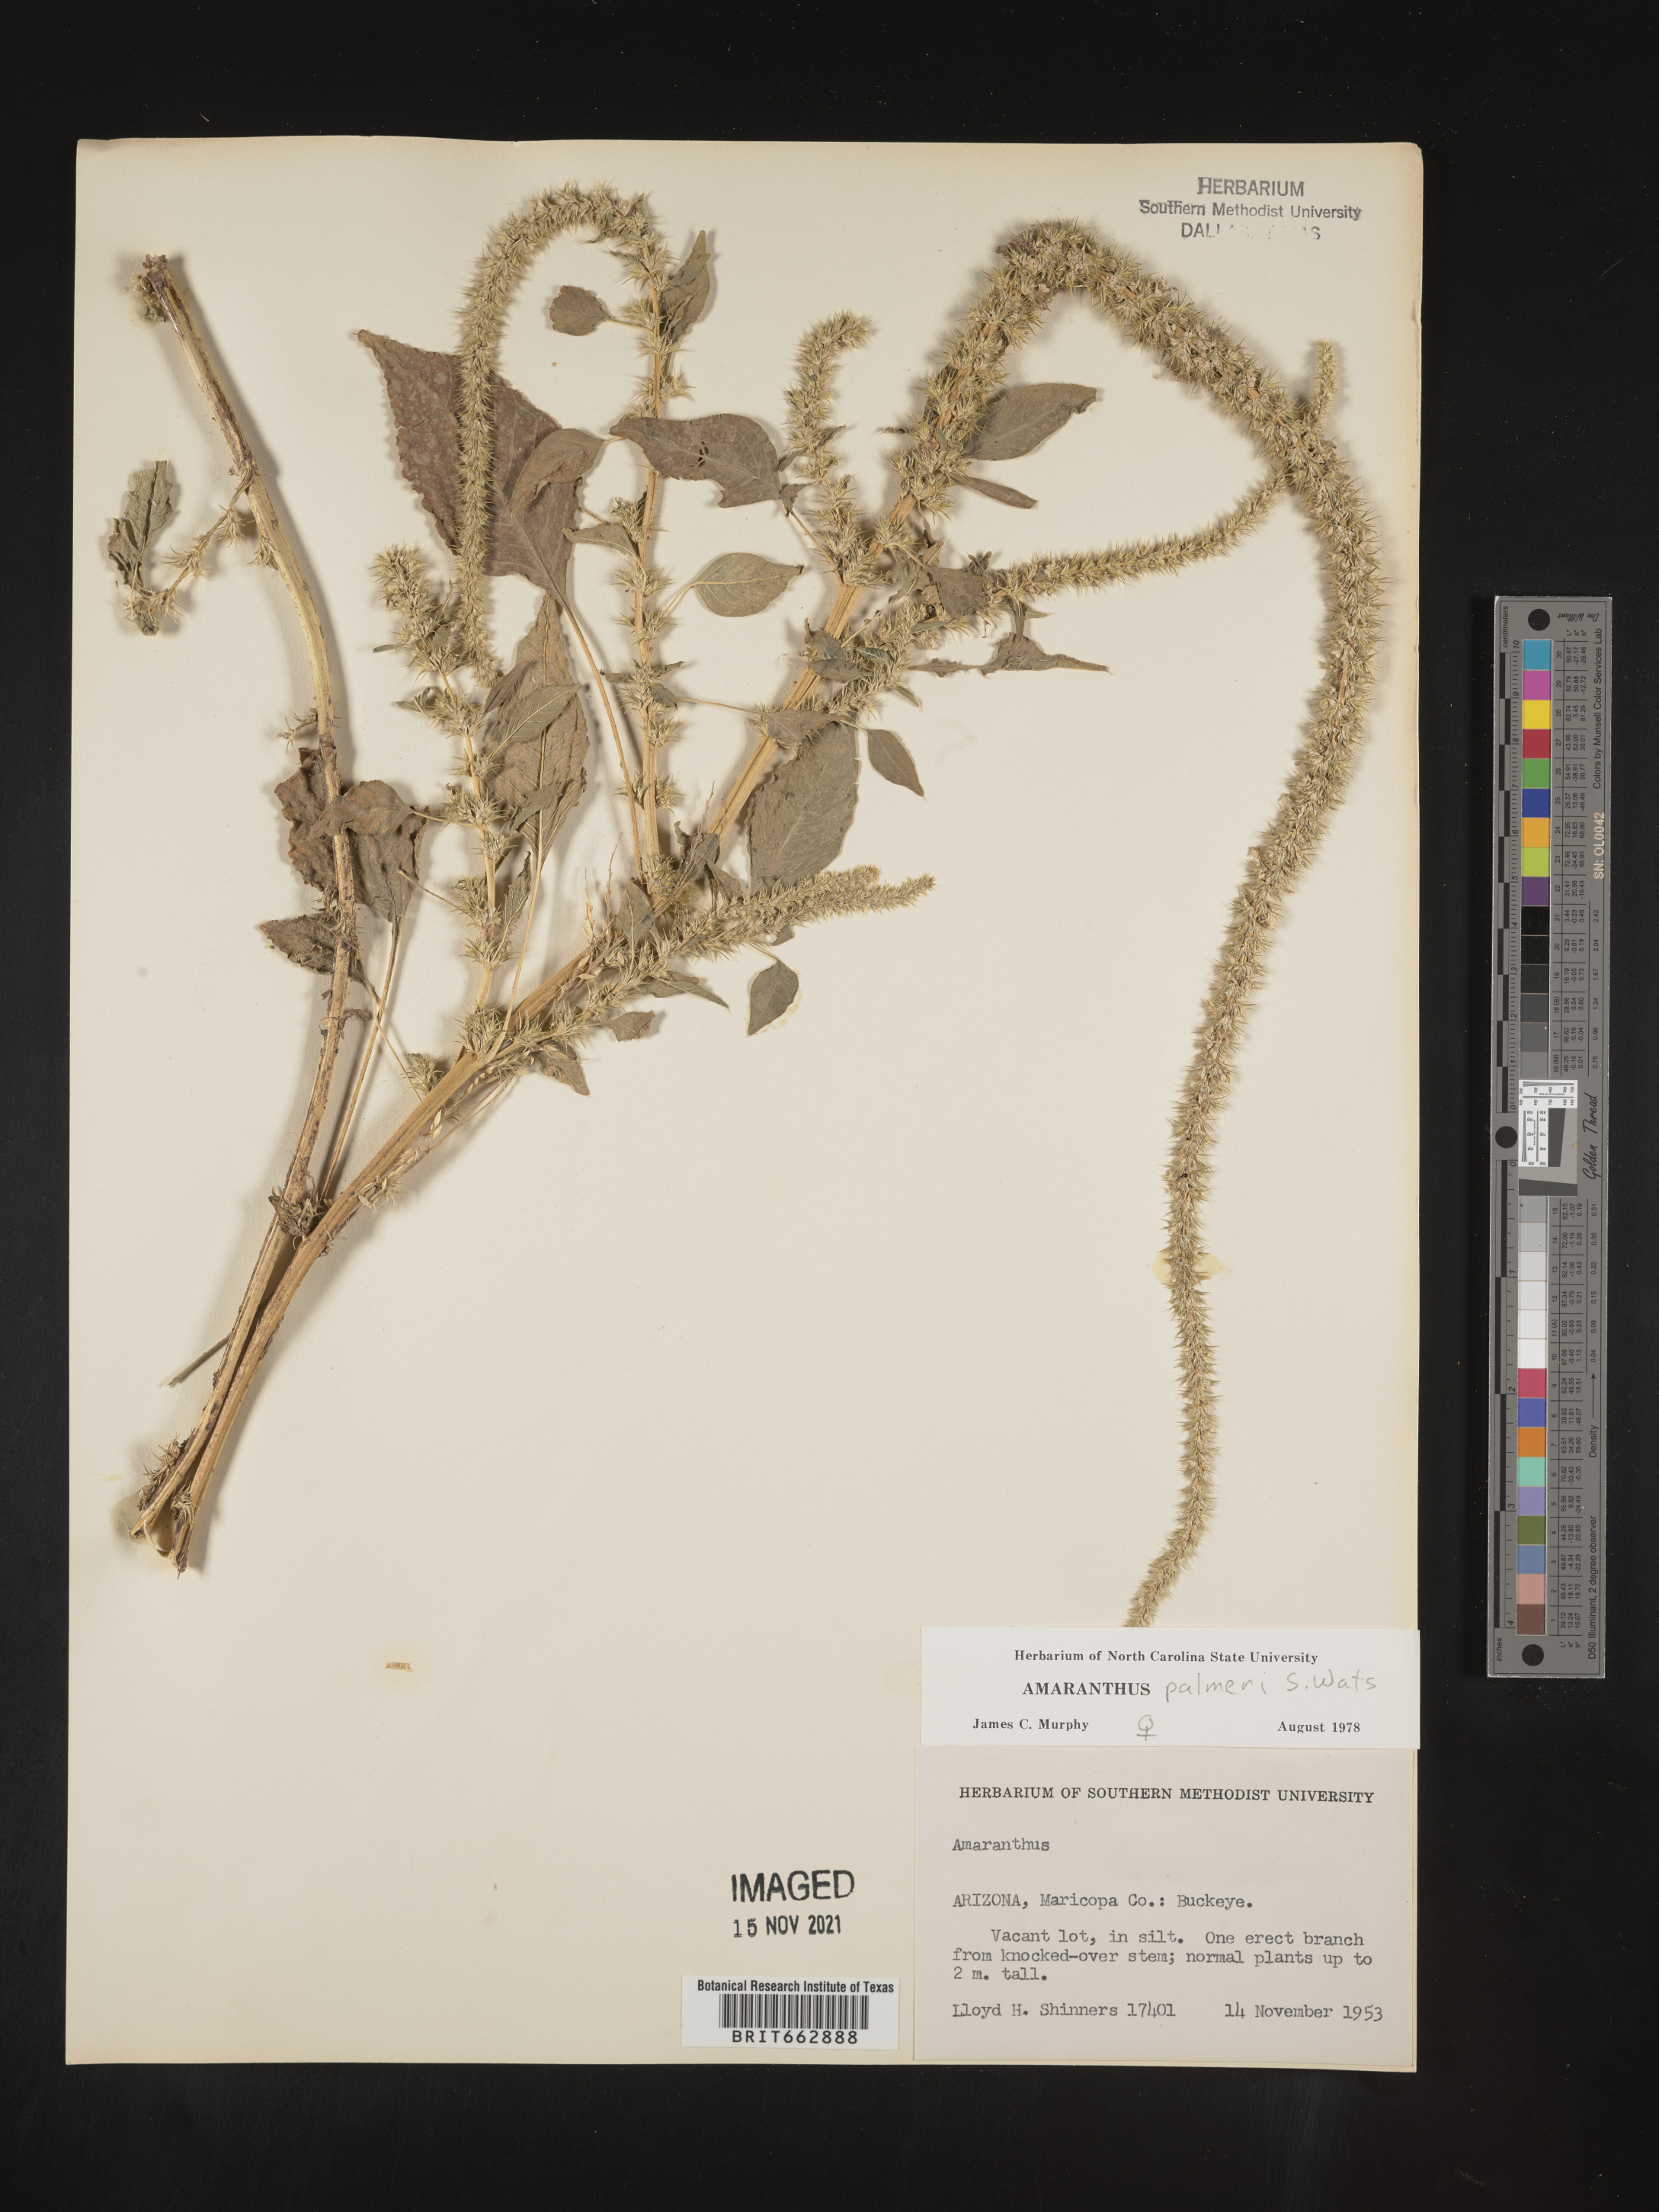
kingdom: Plantae
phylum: Tracheophyta
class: Magnoliopsida
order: Caryophyllales
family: Amaranthaceae
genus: Amaranthus
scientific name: Amaranthus palmeri
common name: Dioecious amaranth
